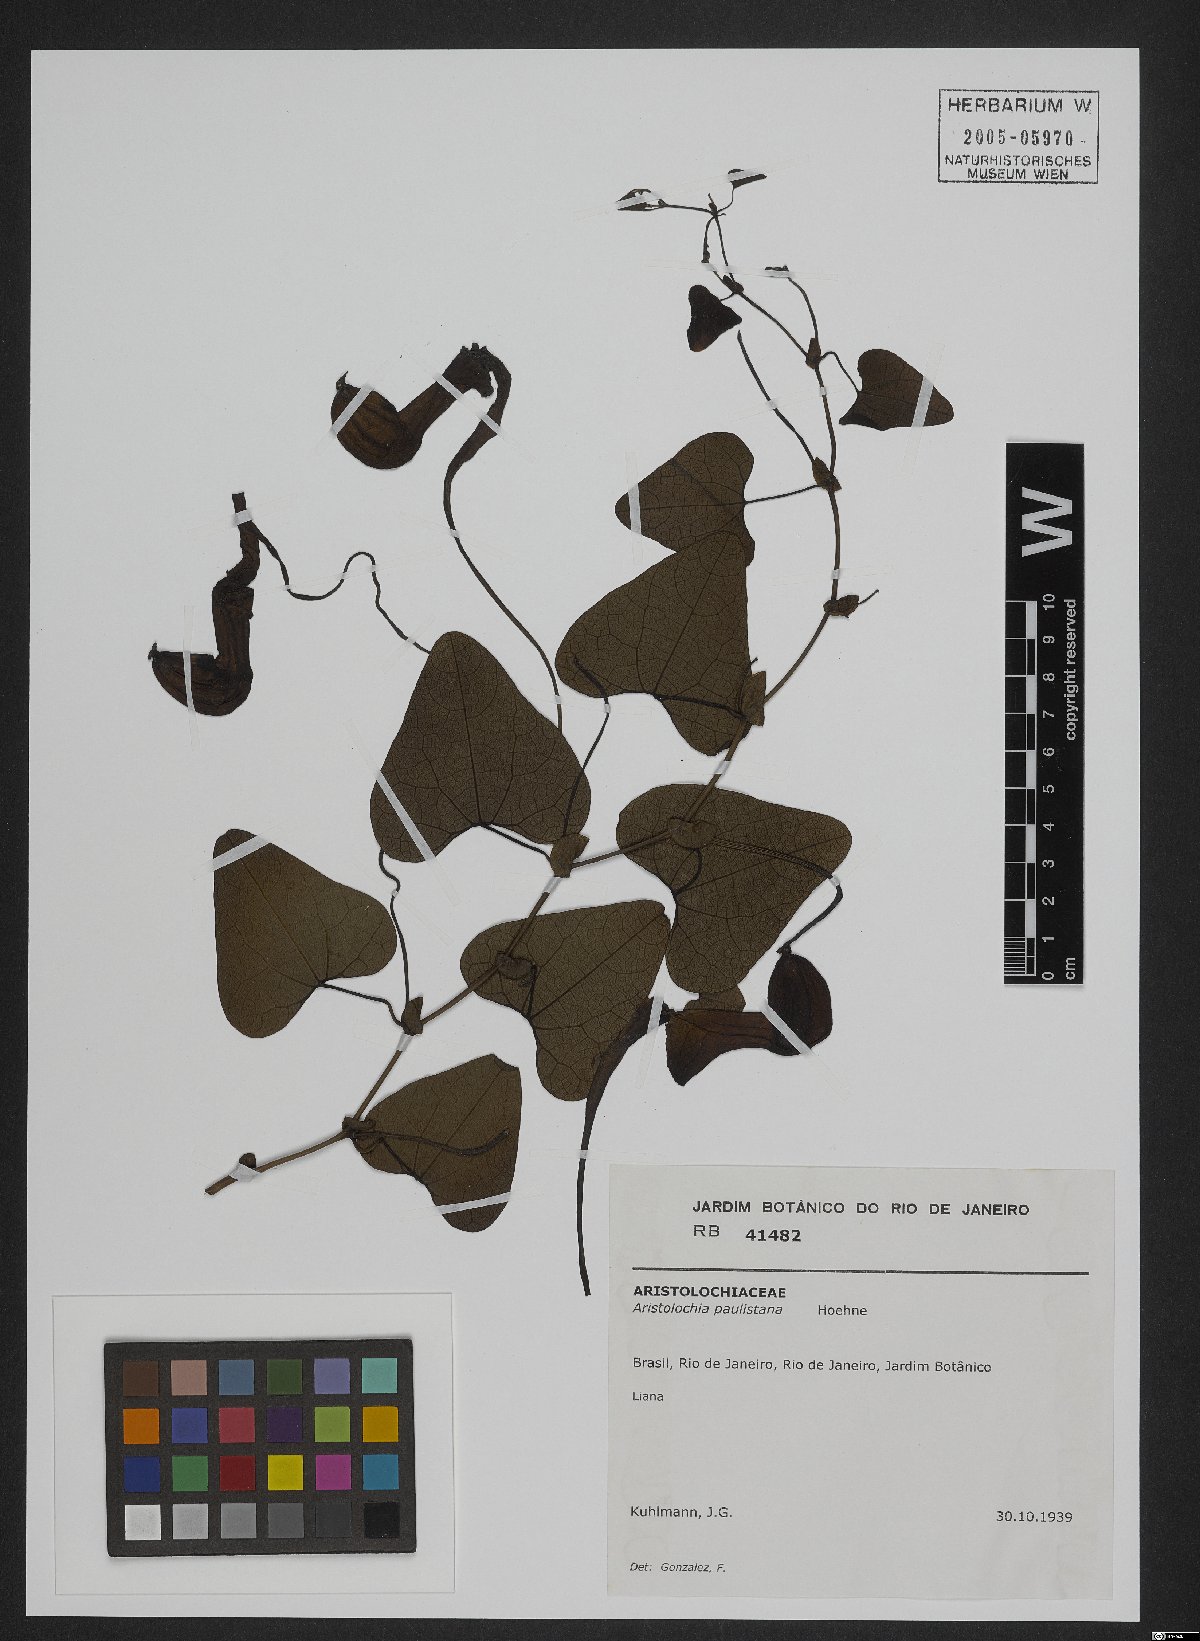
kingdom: Plantae
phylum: Tracheophyta
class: Magnoliopsida
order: Piperales
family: Aristolochiaceae
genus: Aristolochia
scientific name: Aristolochia paulistana
